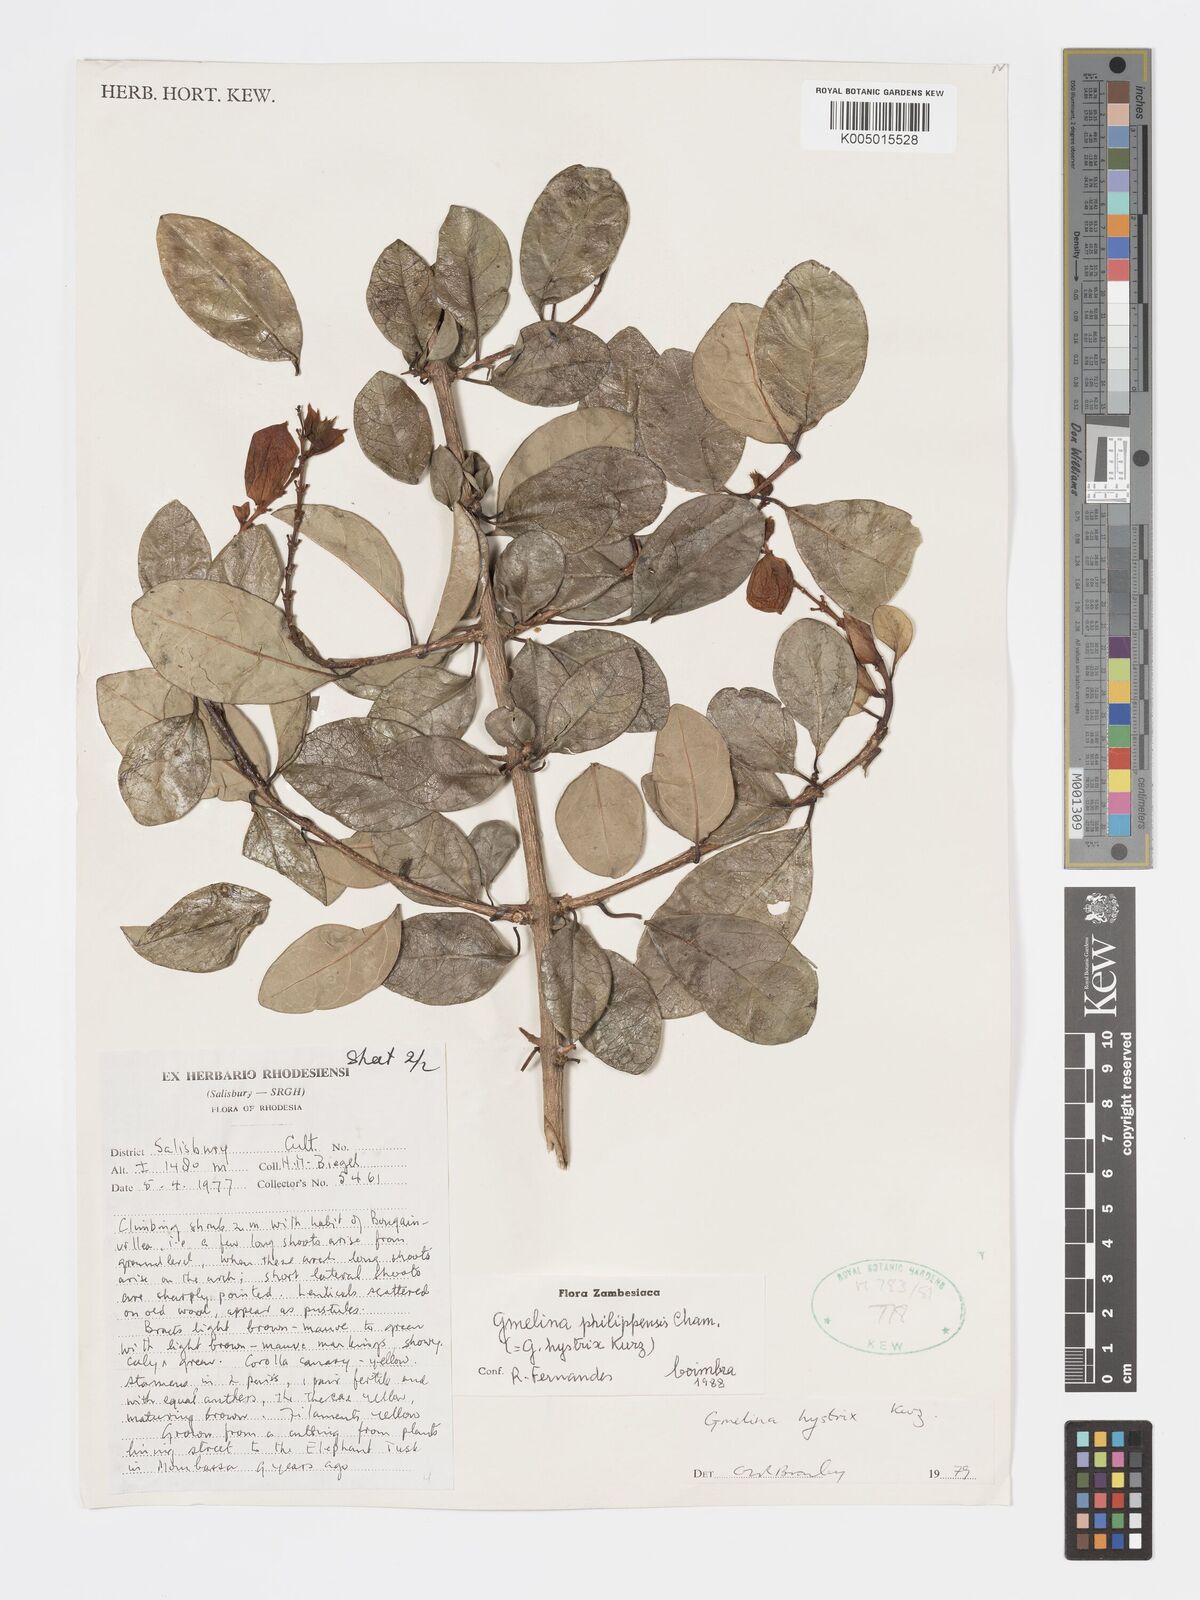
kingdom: Plantae
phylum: Tracheophyta
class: Magnoliopsida
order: Lamiales
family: Lamiaceae
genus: Gmelina
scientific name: Gmelina philippensis
